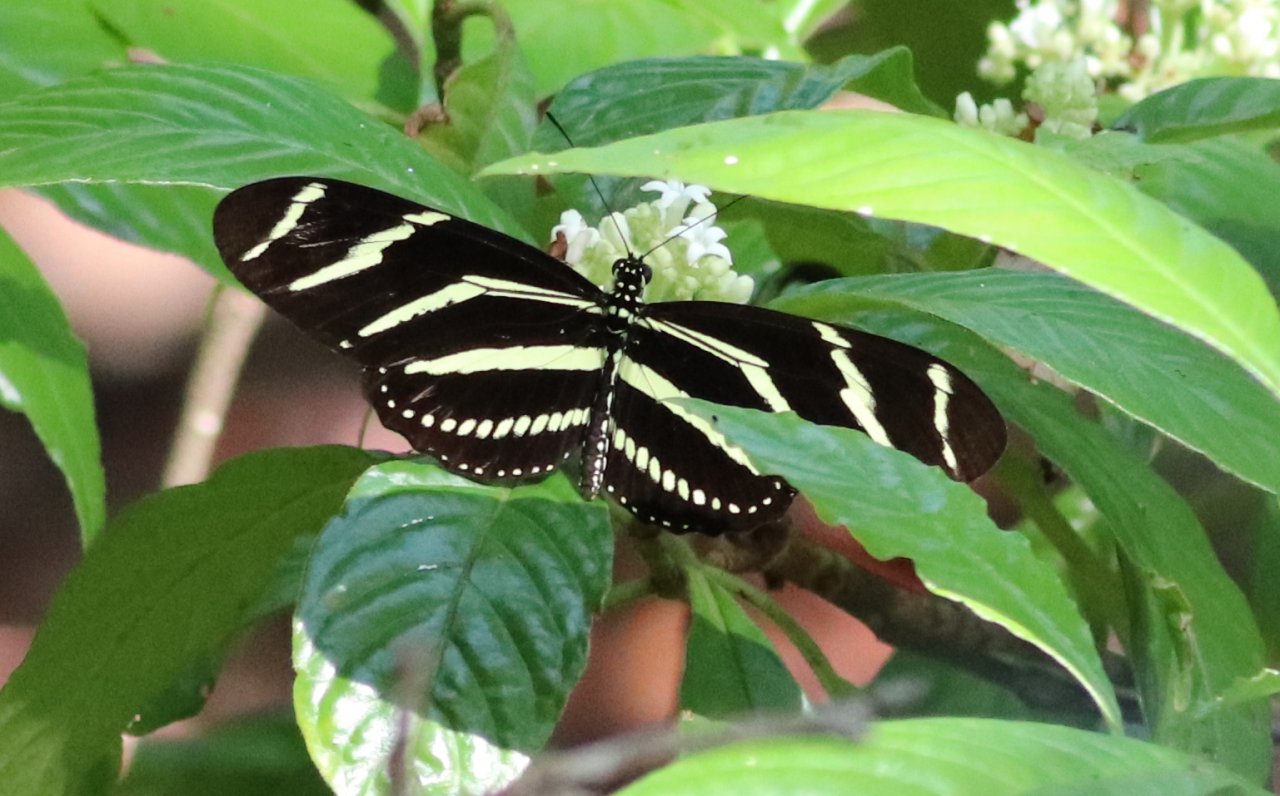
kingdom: Animalia
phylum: Arthropoda
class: Insecta
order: Lepidoptera
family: Nymphalidae
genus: Heliconius
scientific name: Heliconius charithonia
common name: Zebra Longwing
